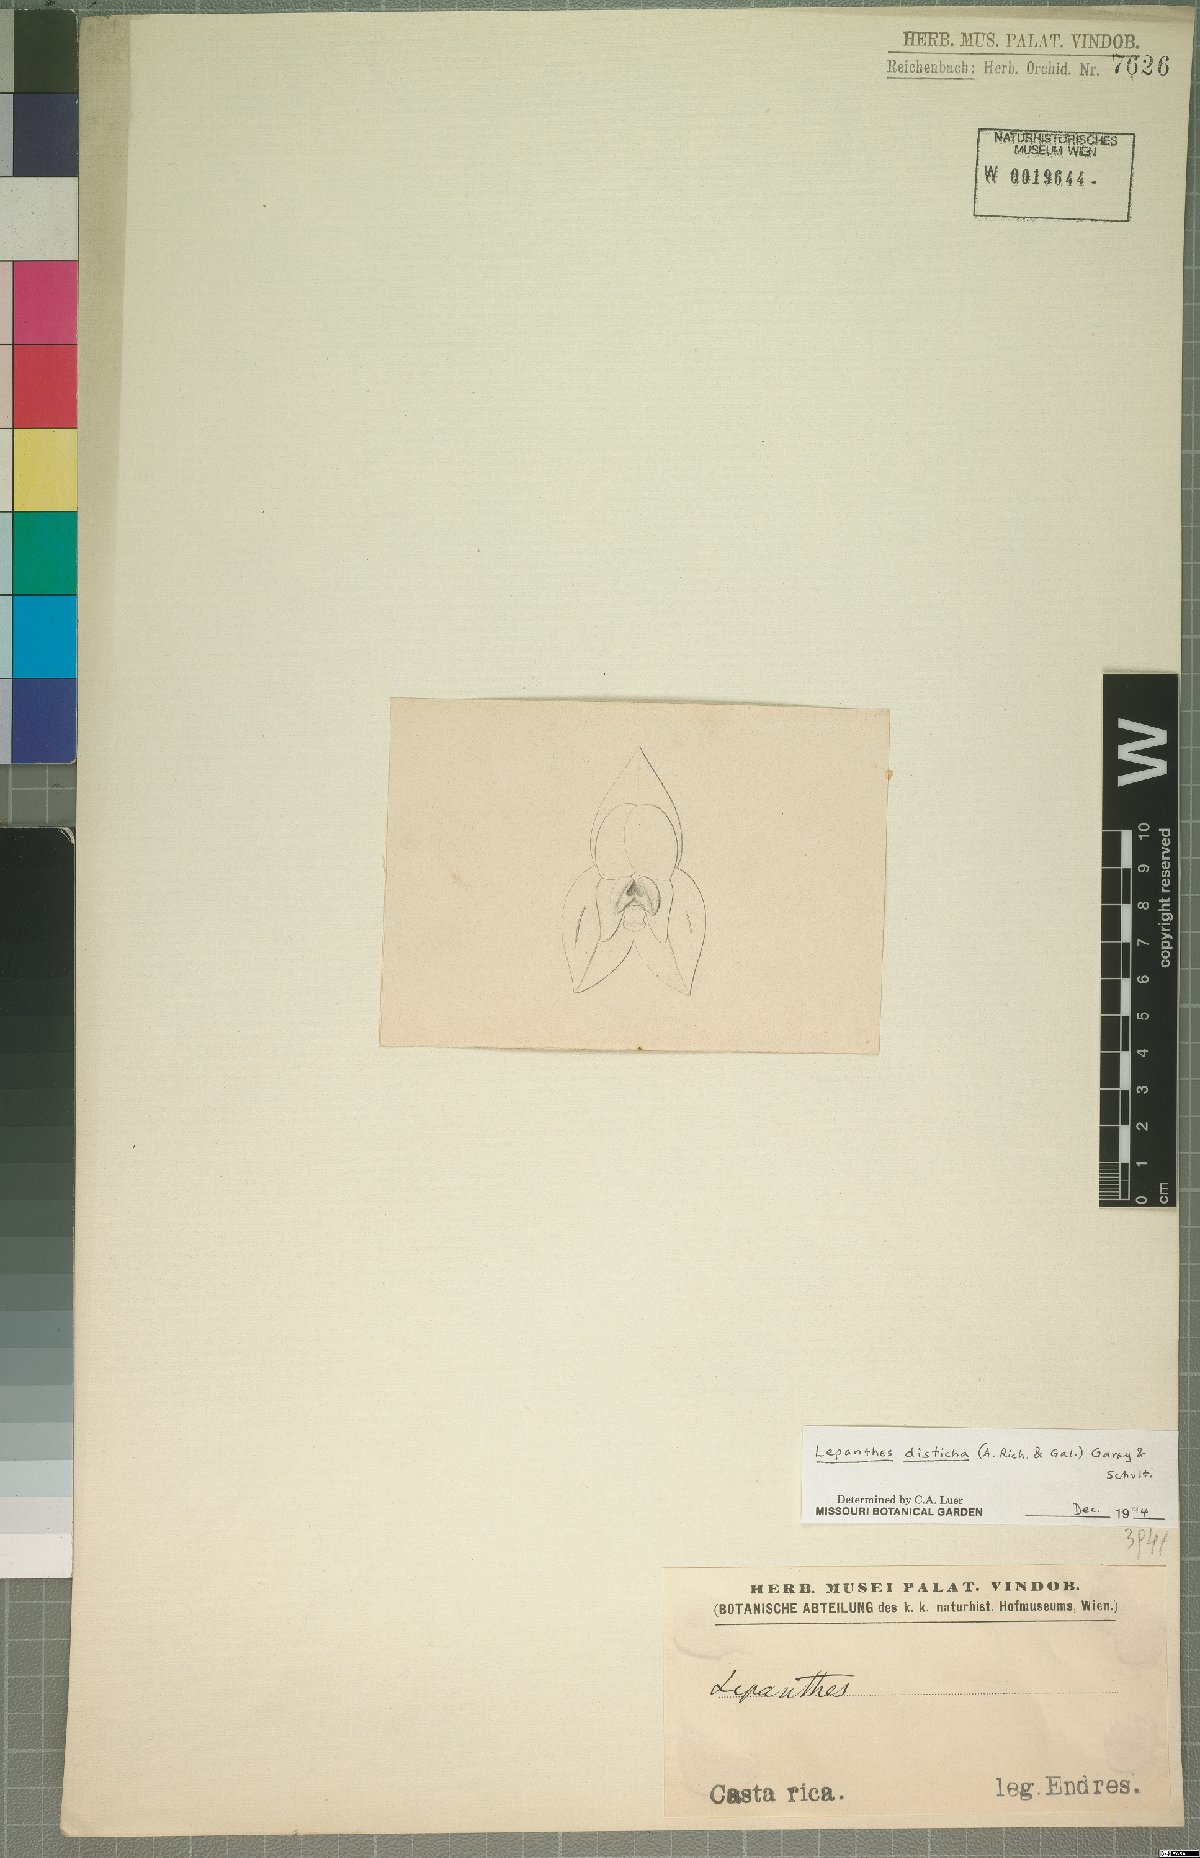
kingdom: Plantae
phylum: Tracheophyta
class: Liliopsida
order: Asparagales
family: Orchidaceae
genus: Lepanthes
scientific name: Lepanthes disticha
